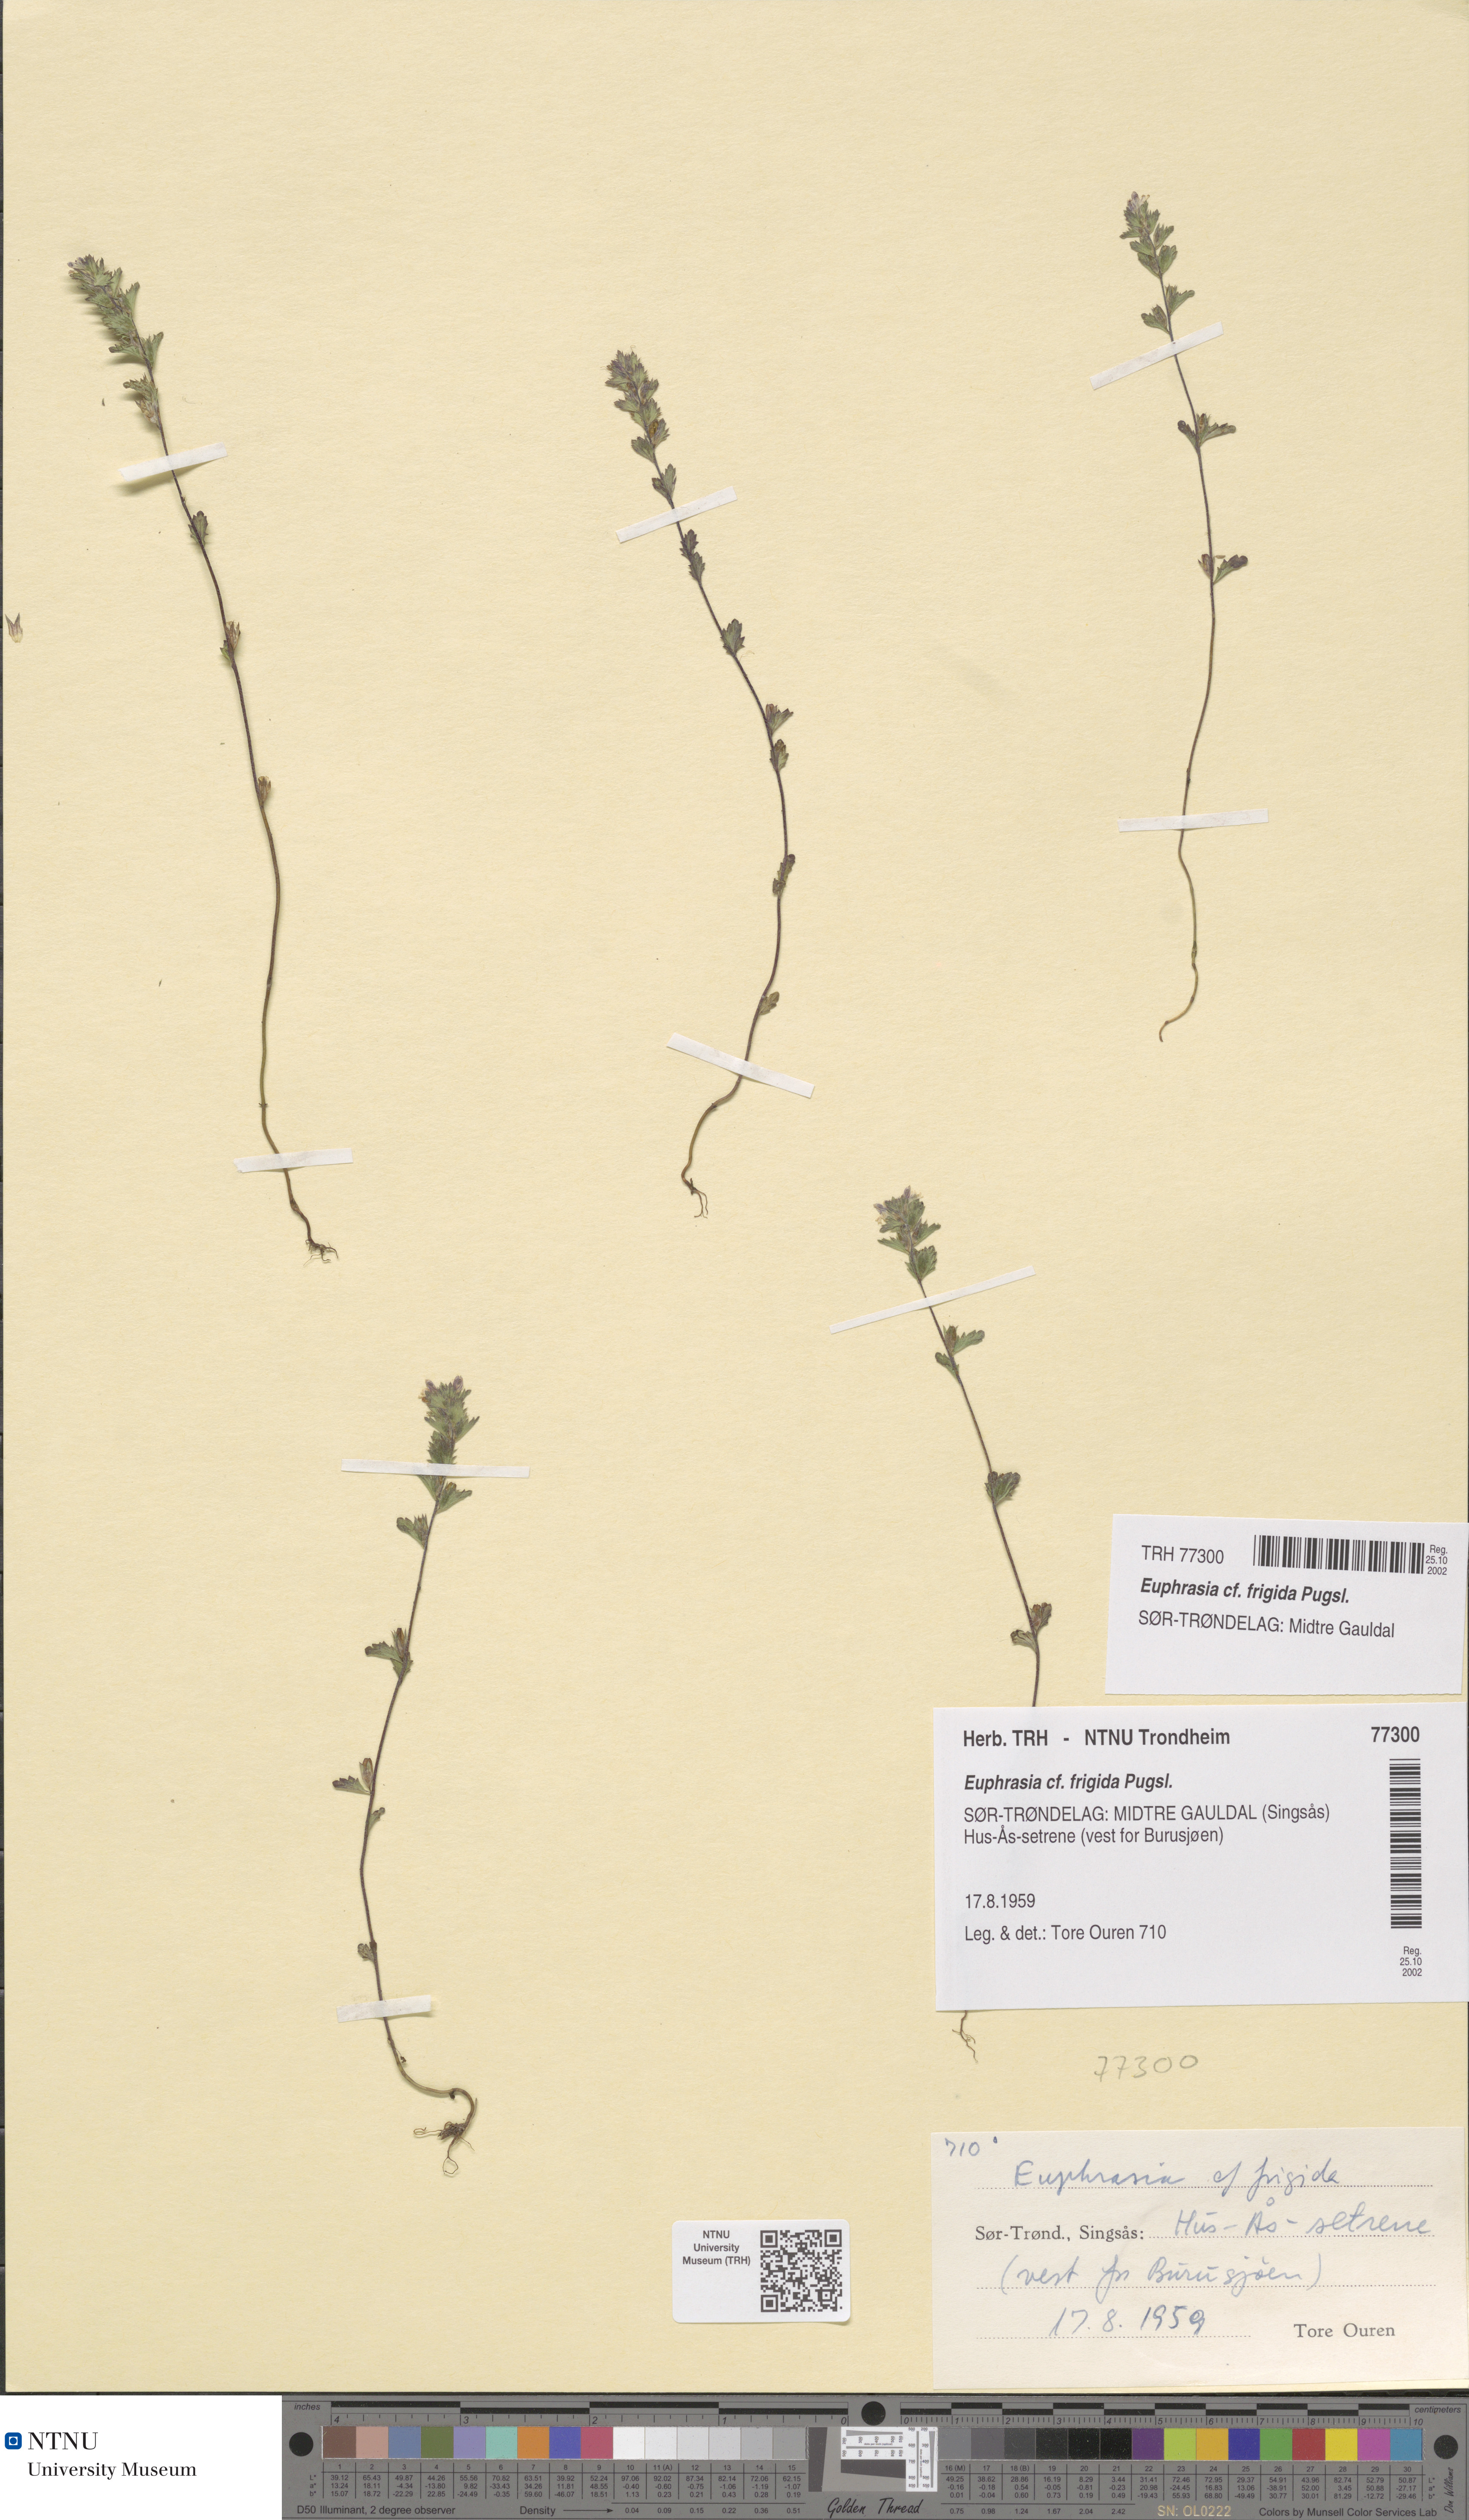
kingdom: Plantae
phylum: Tracheophyta
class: Magnoliopsida
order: Lamiales
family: Orobanchaceae
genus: Euphrasia
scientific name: Euphrasia wettsteinii
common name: Wettstein's eyebright
